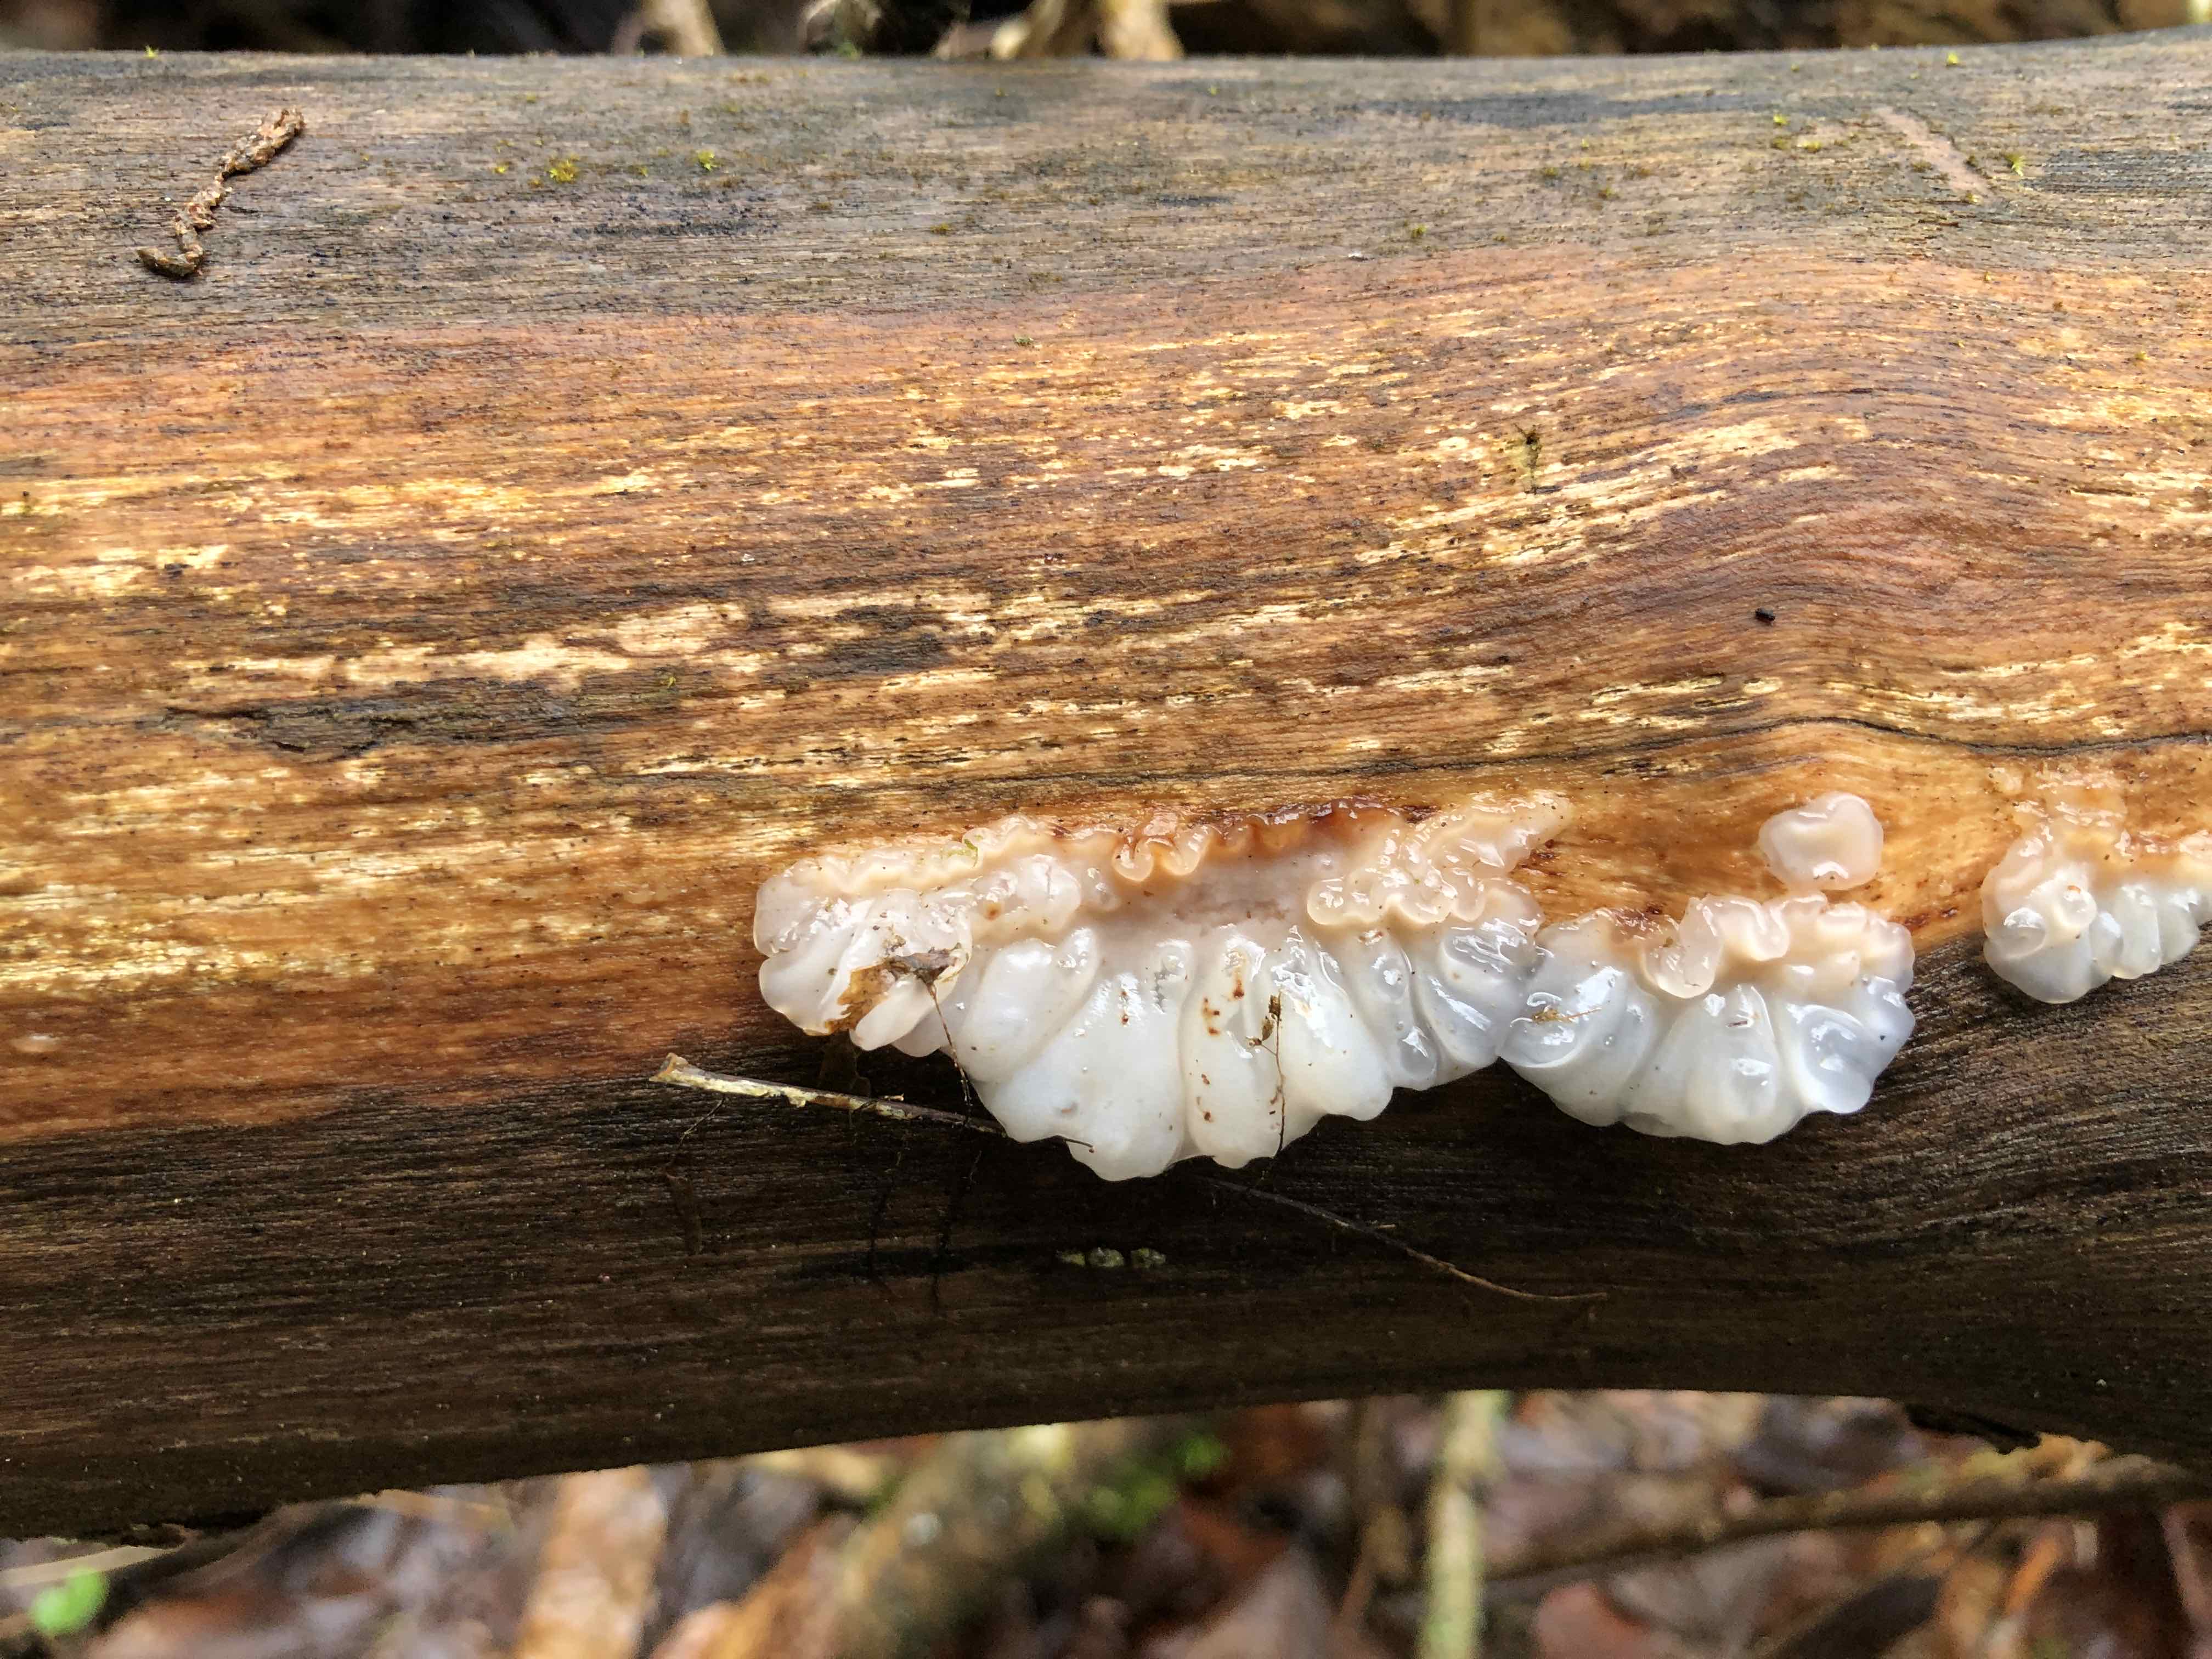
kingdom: Fungi
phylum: Basidiomycota
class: Agaricomycetes
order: Auriculariales
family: Auriculariaceae
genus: Exidia
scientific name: Exidia thuretiana
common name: hvidlig bævretop
